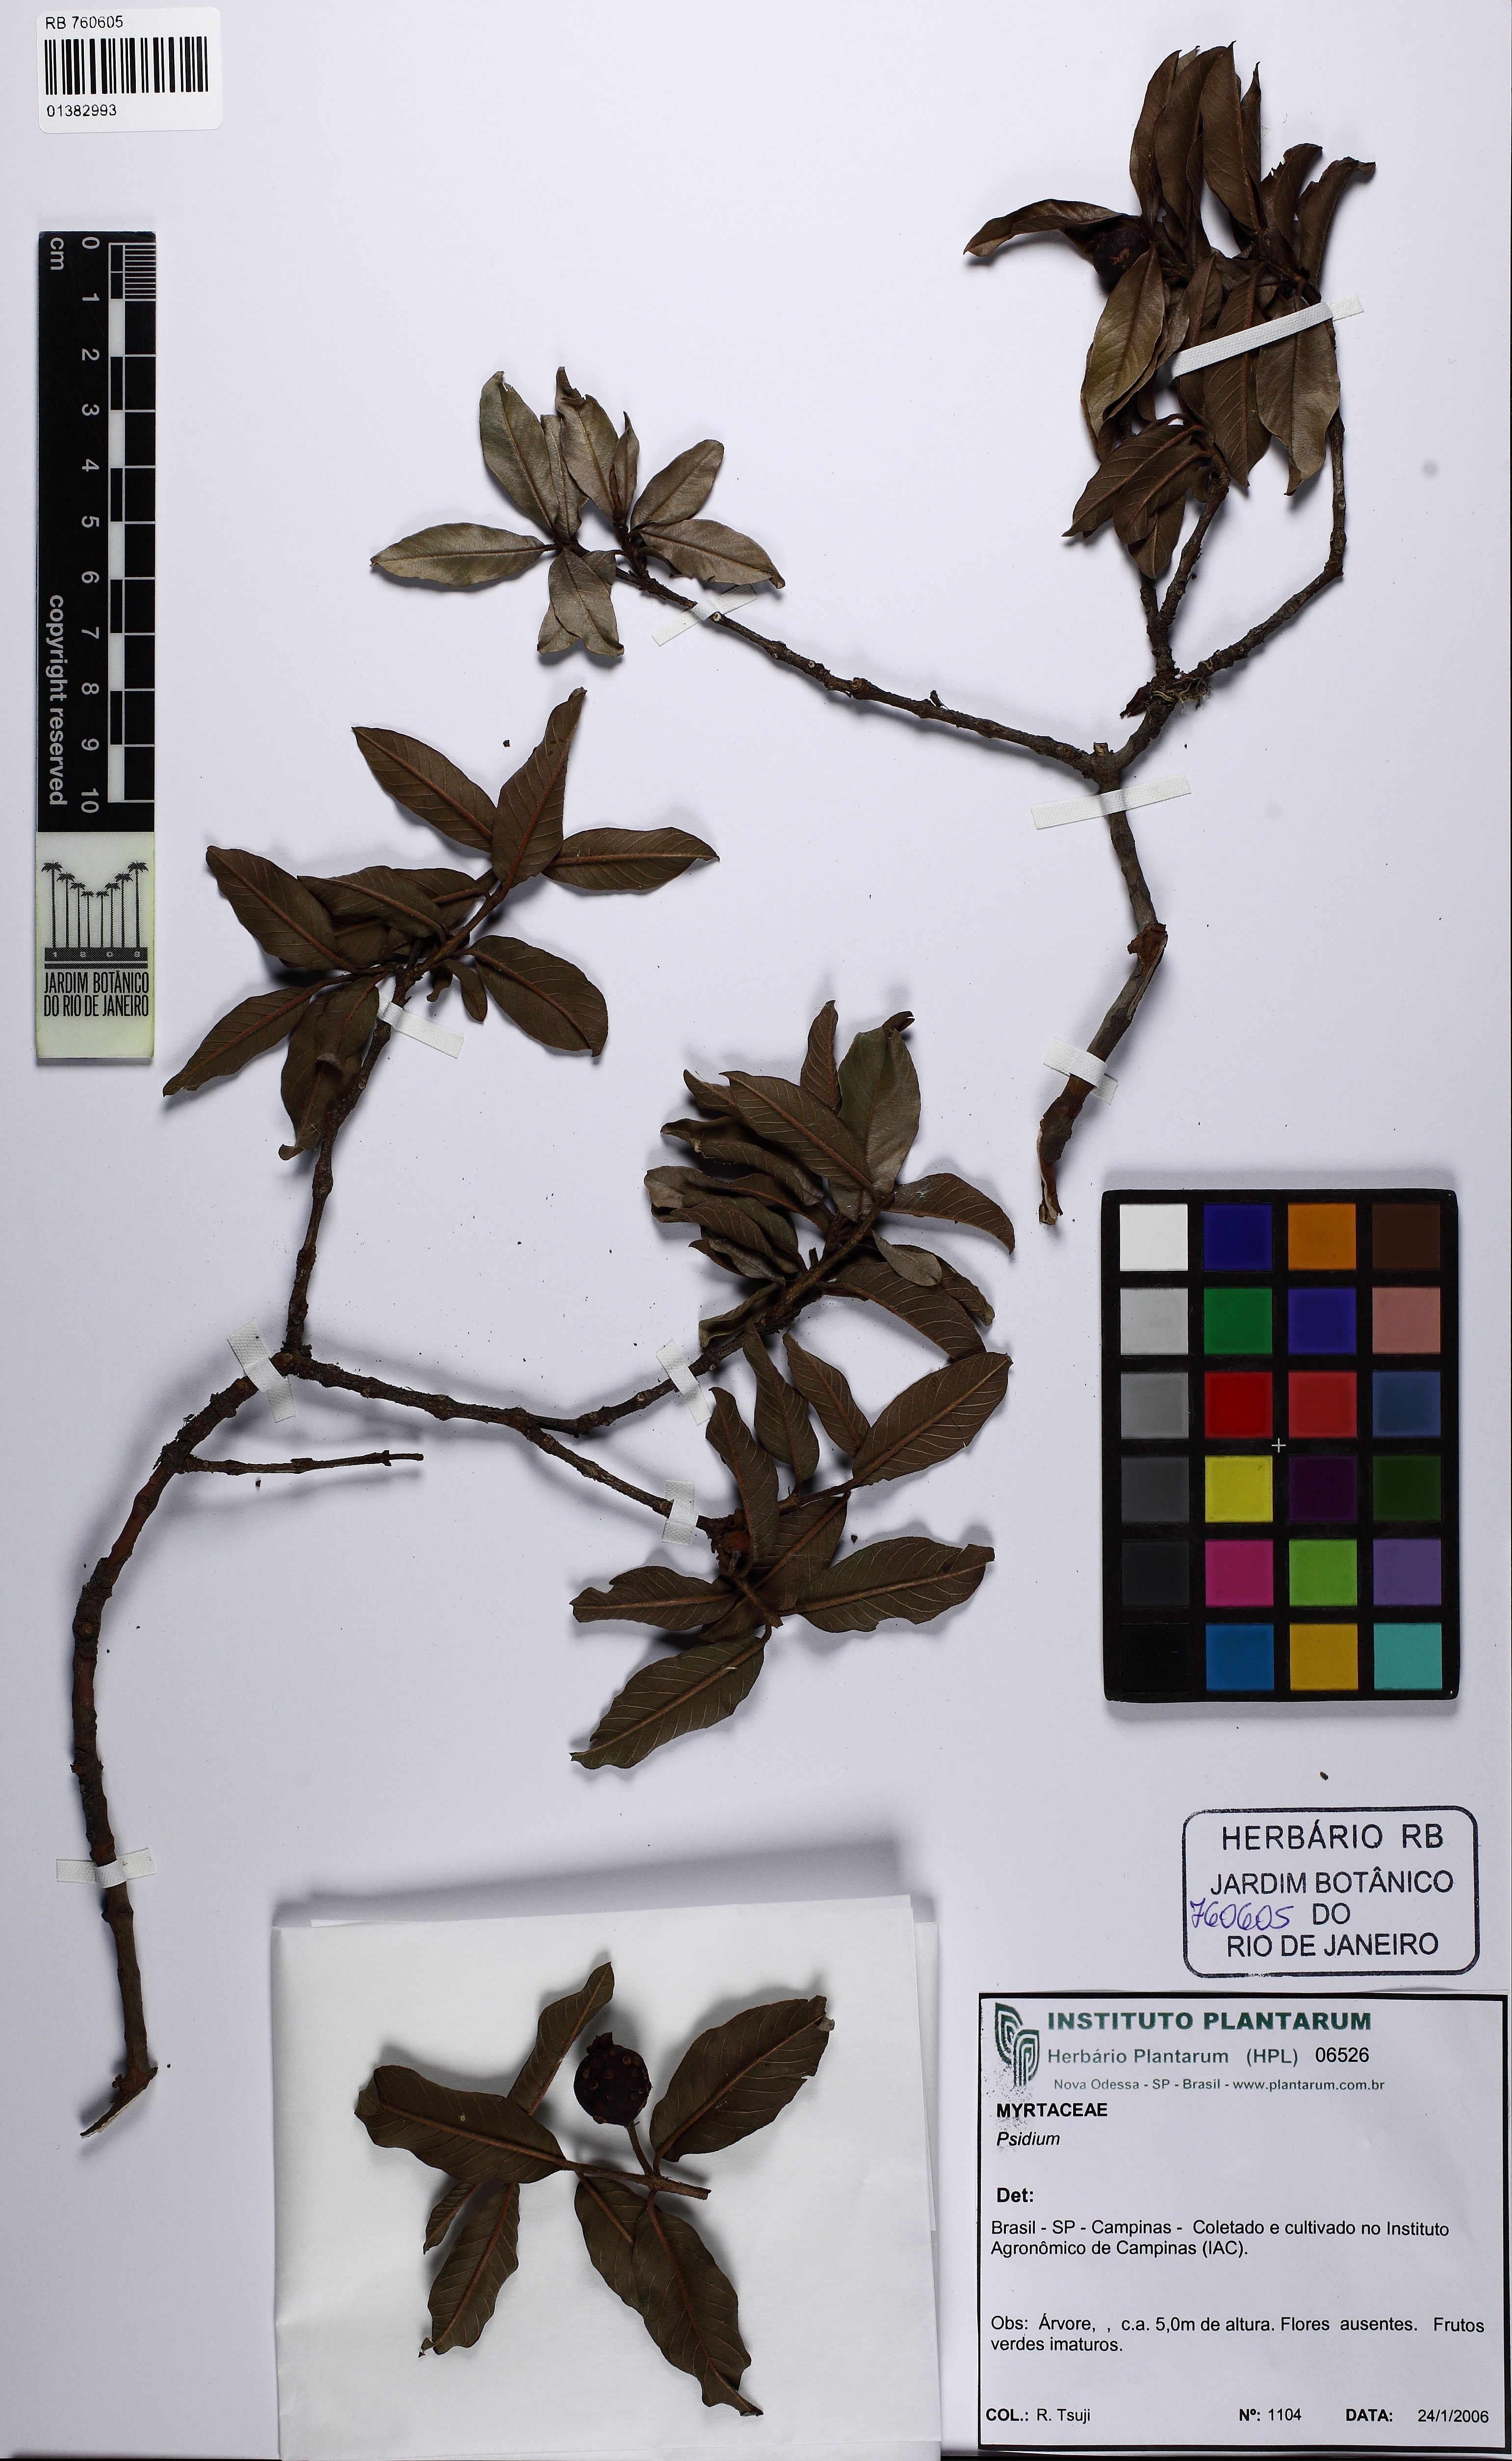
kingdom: Plantae
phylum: Tracheophyta
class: Magnoliopsida
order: Myrtales
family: Myrtaceae
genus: Psidium
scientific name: Psidium
